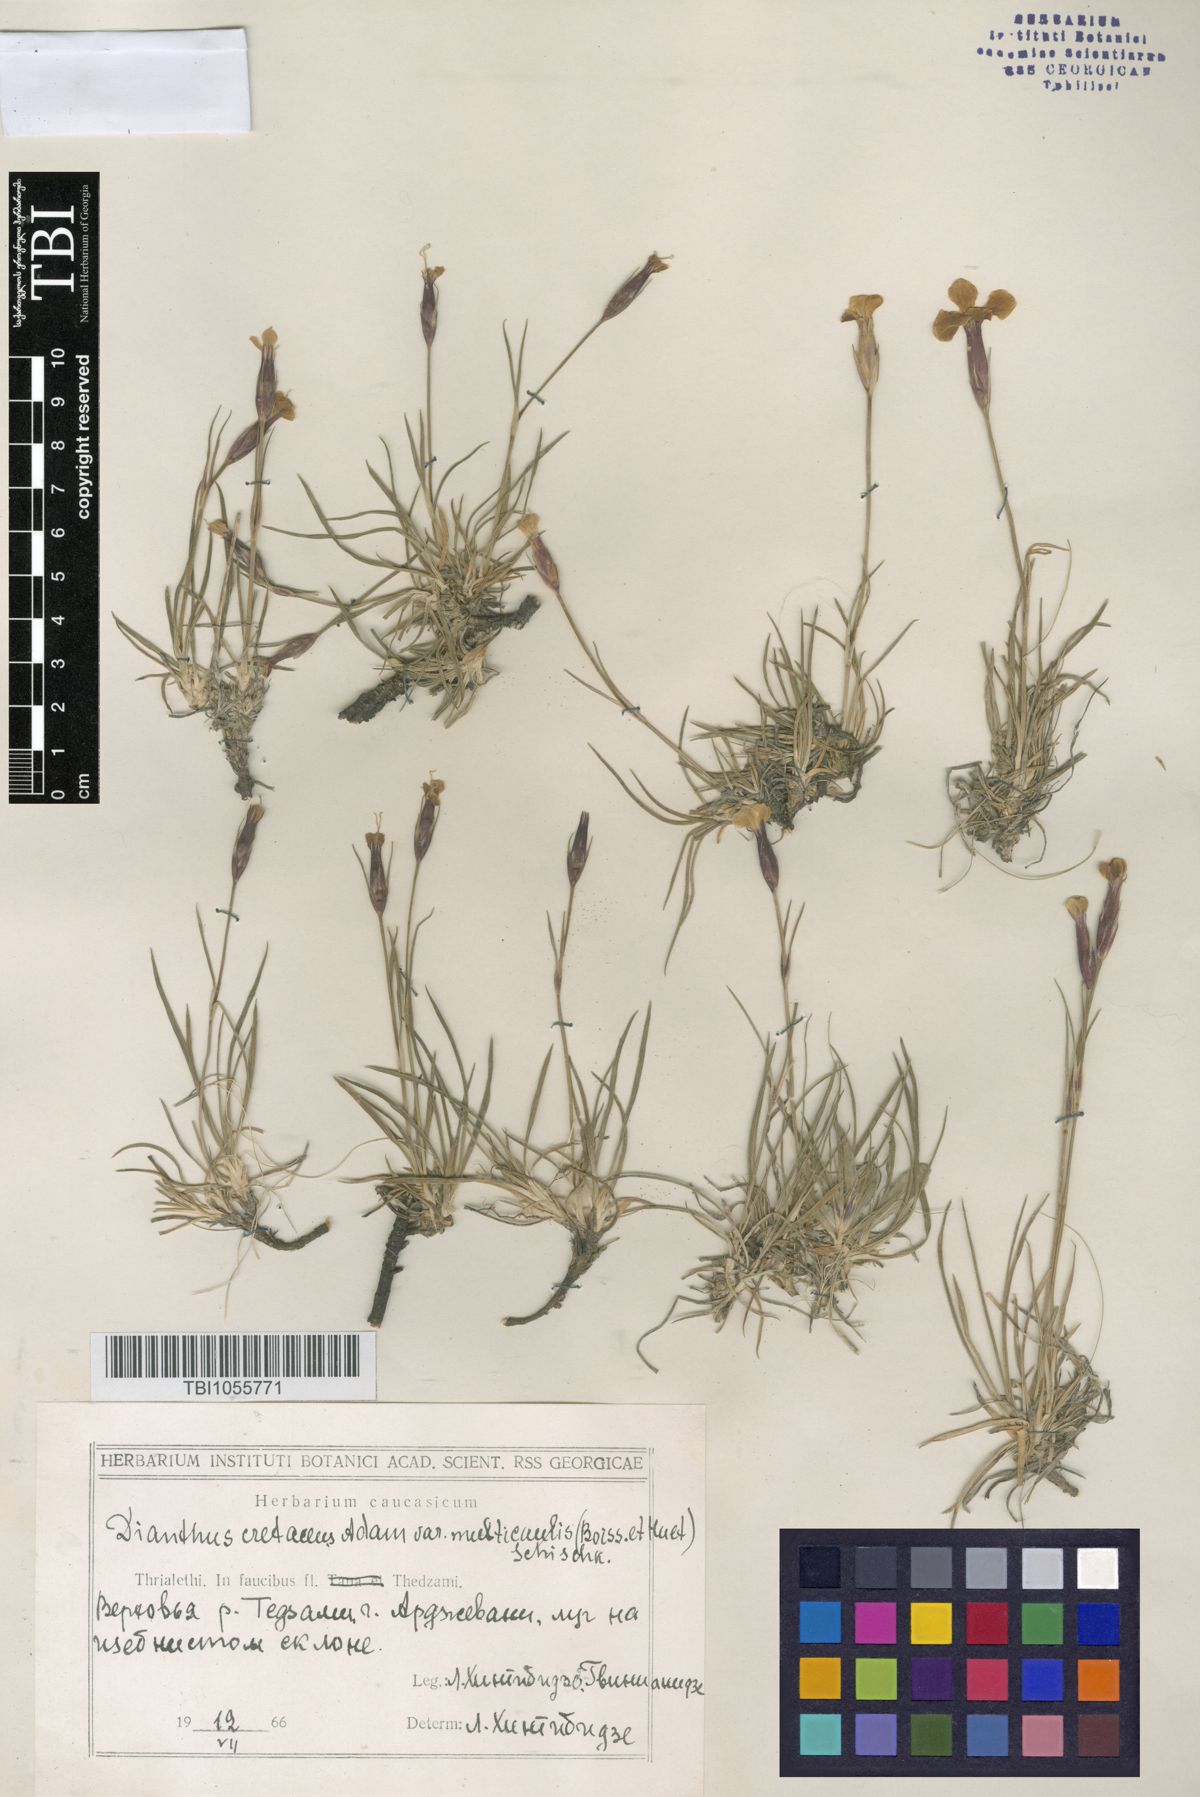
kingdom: Plantae
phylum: Tracheophyta
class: Magnoliopsida
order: Caryophyllales
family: Caryophyllaceae
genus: Dianthus
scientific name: Dianthus cretaceus
